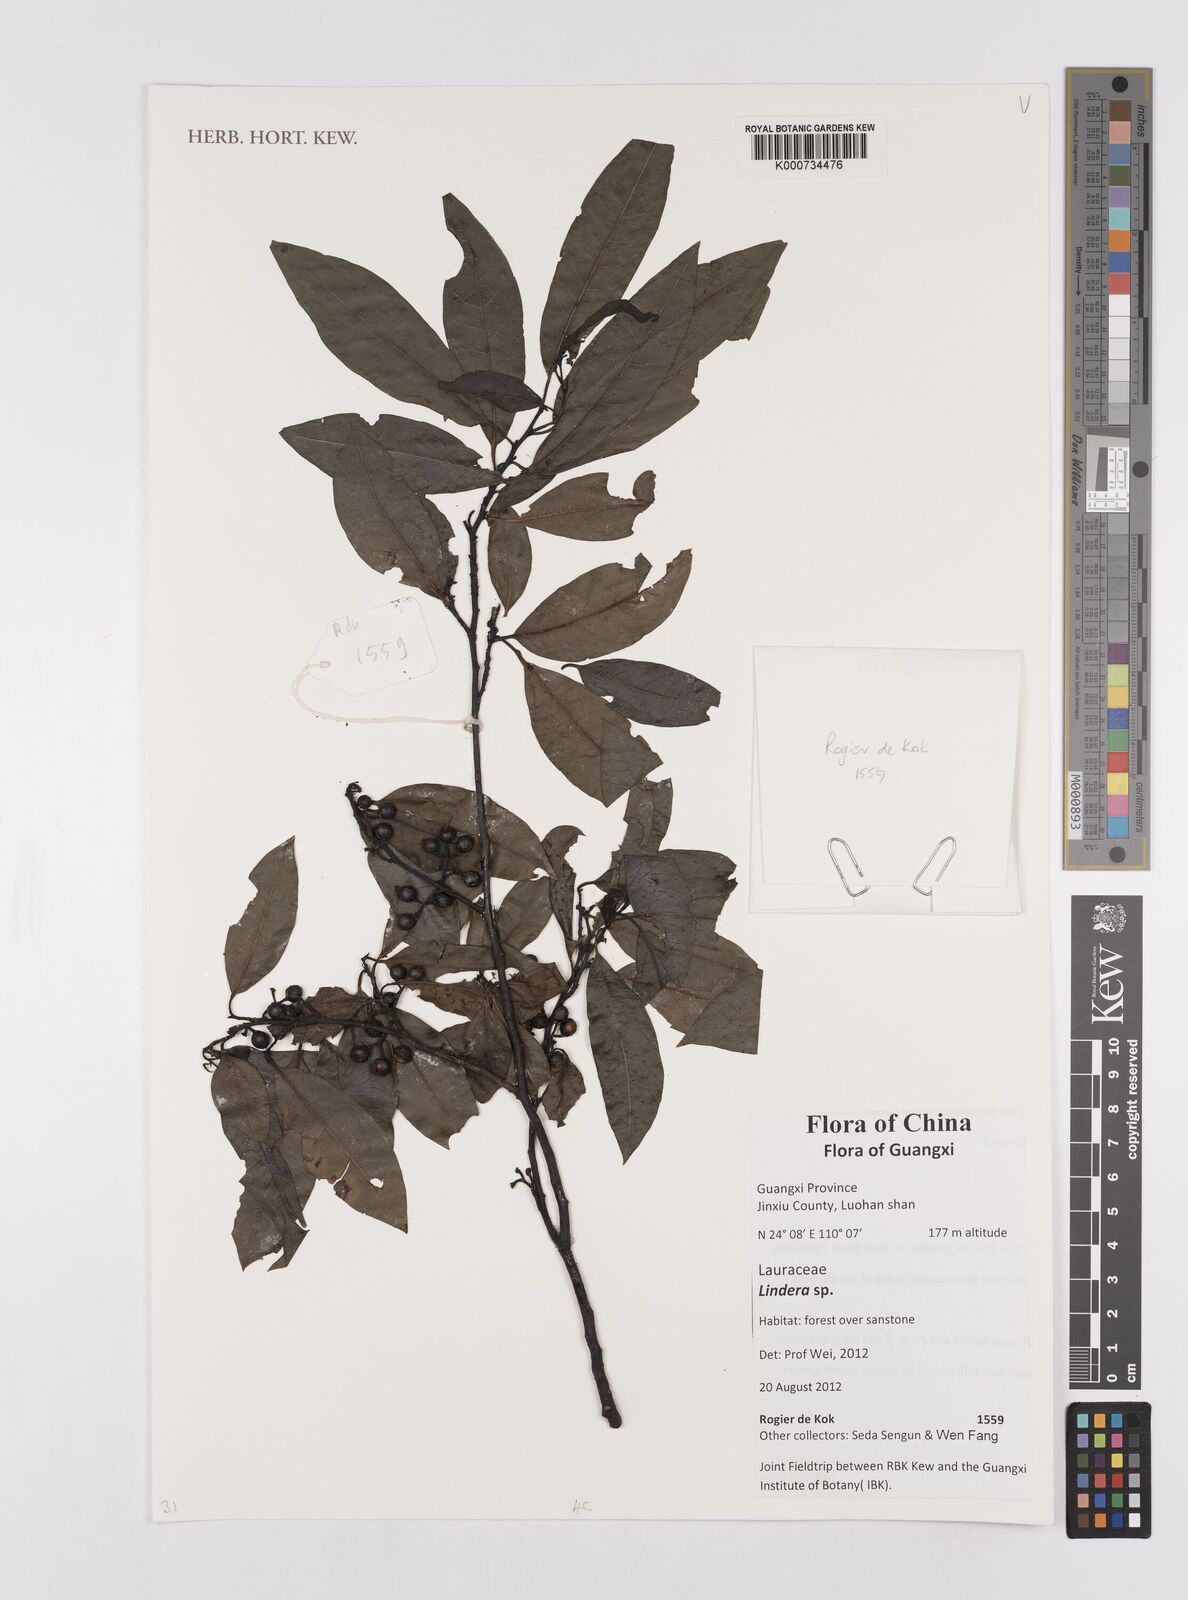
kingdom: Plantae
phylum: Tracheophyta
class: Magnoliopsida
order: Laurales
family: Lauraceae
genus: Lindera
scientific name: Lindera
